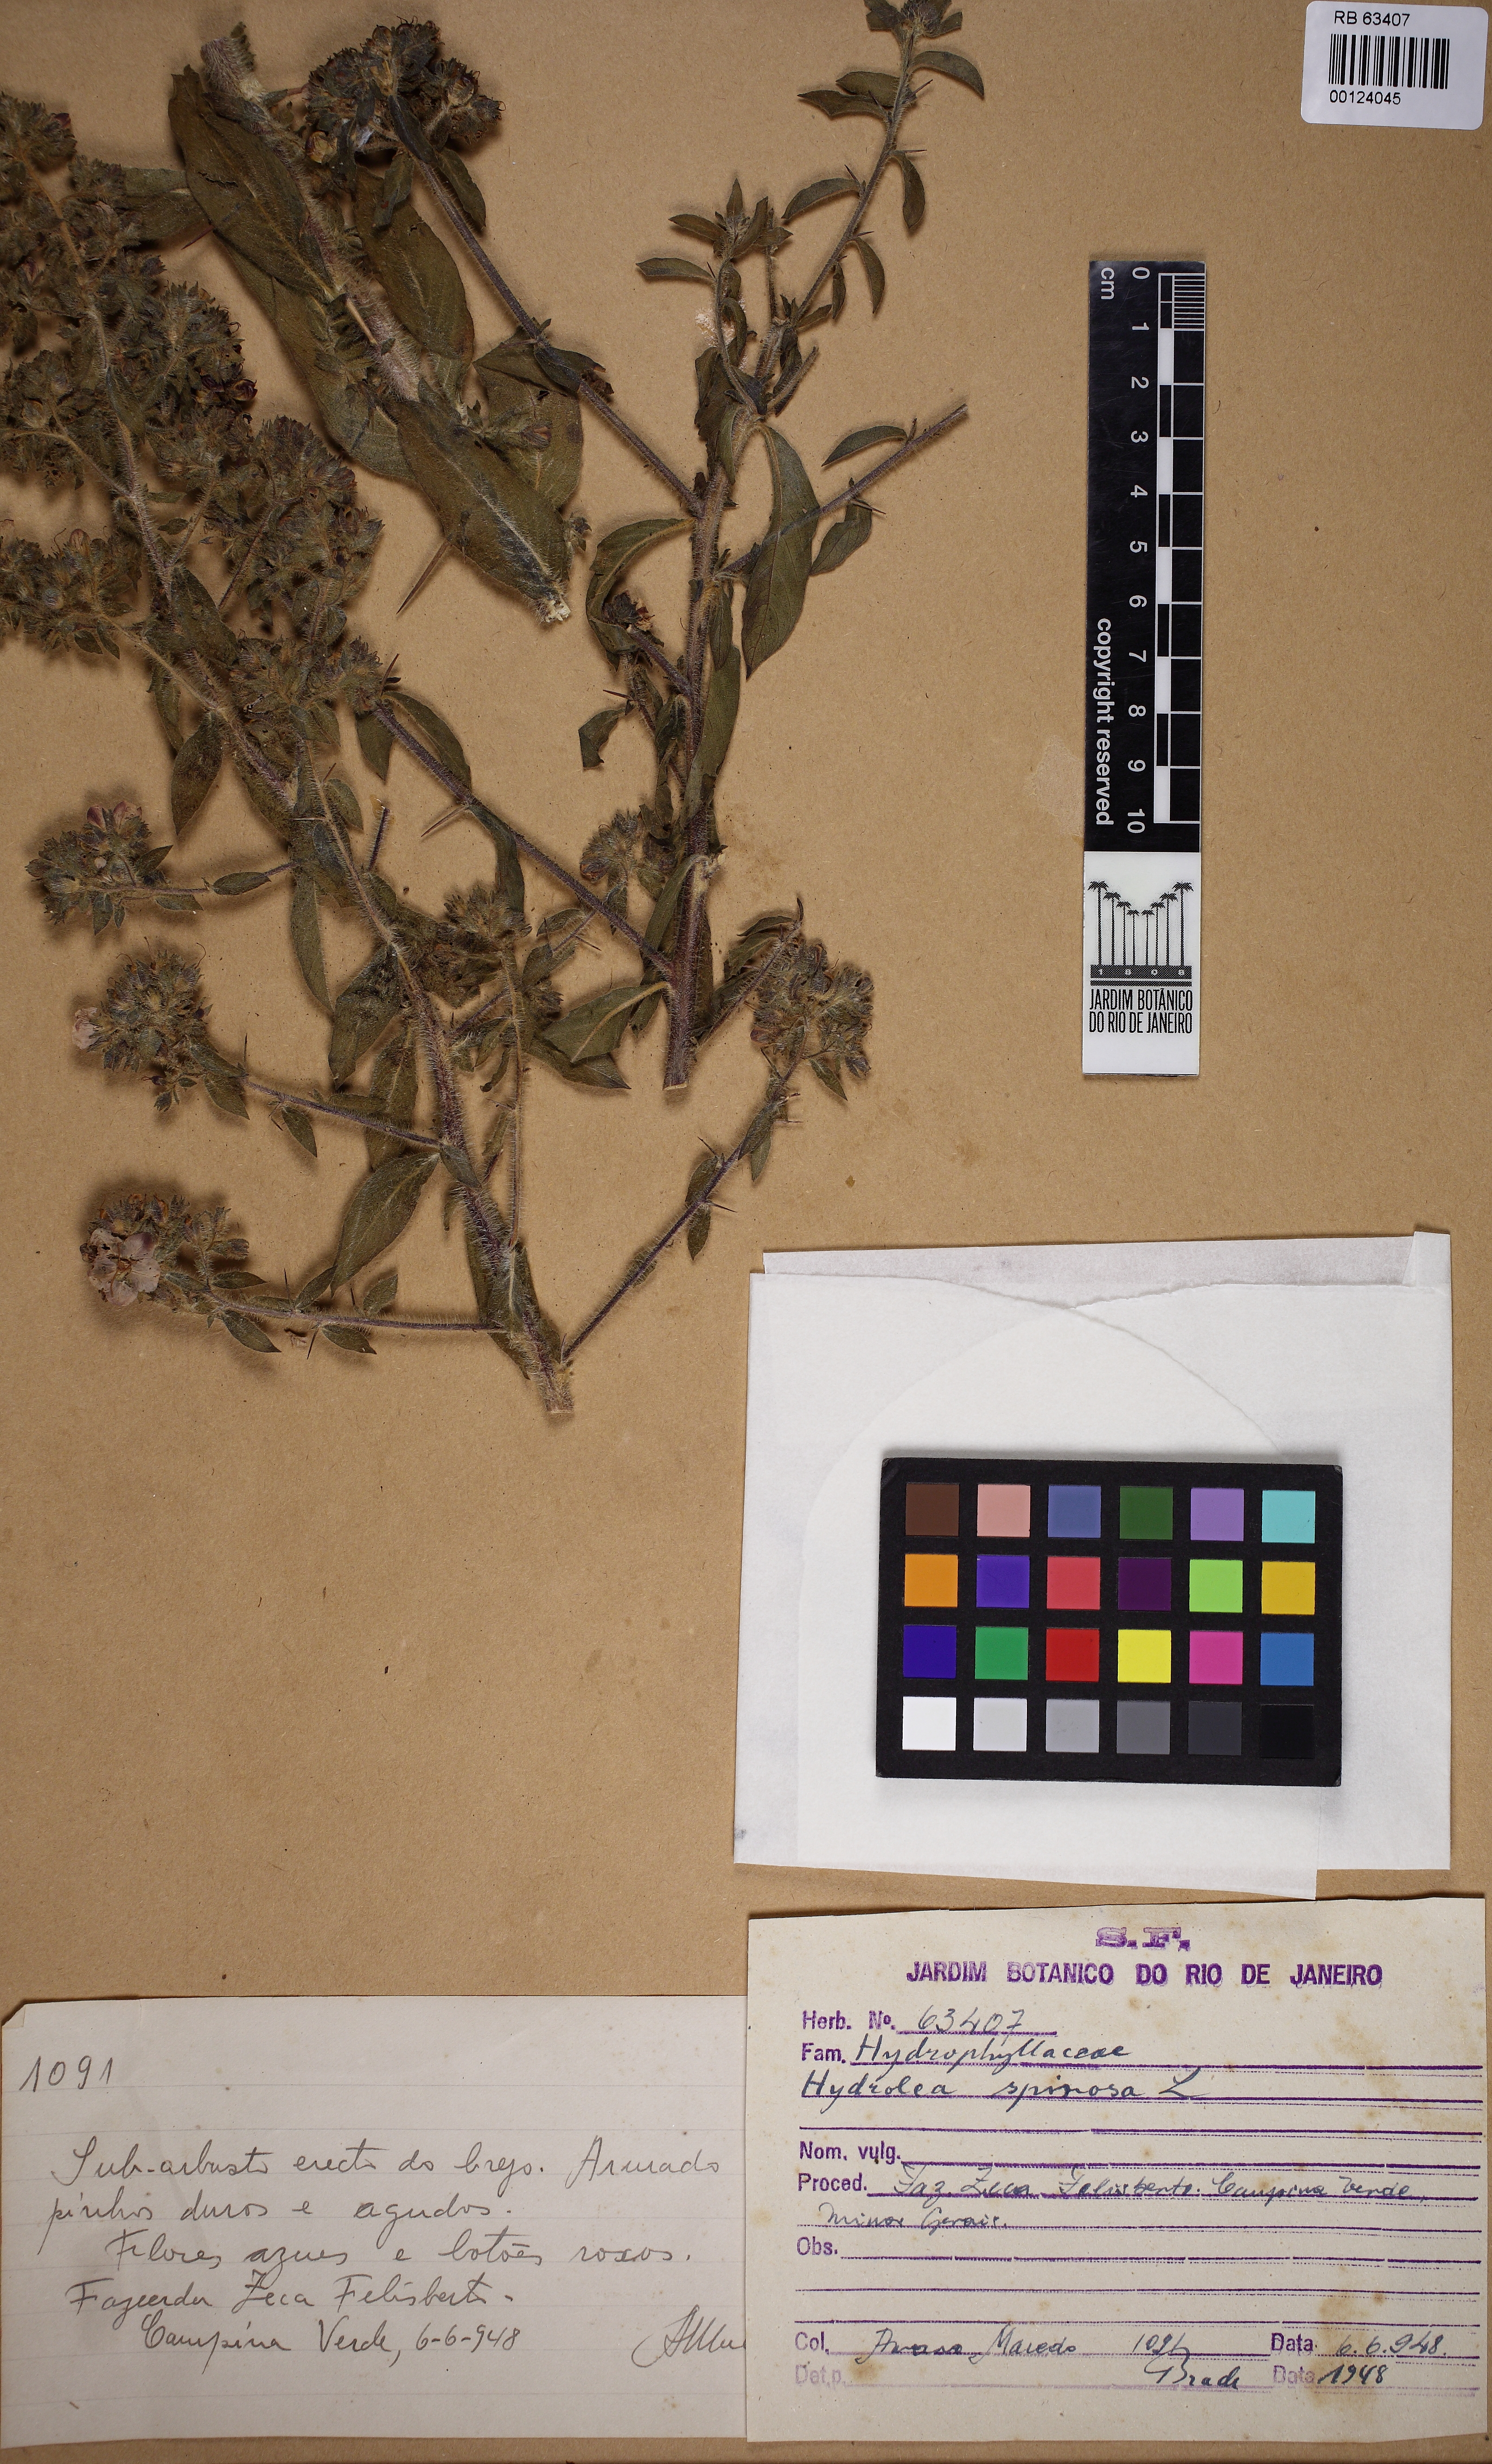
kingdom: Plantae
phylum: Tracheophyta
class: Magnoliopsida
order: Solanales
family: Hydroleaceae
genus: Hydrolea
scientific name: Hydrolea spinosa
